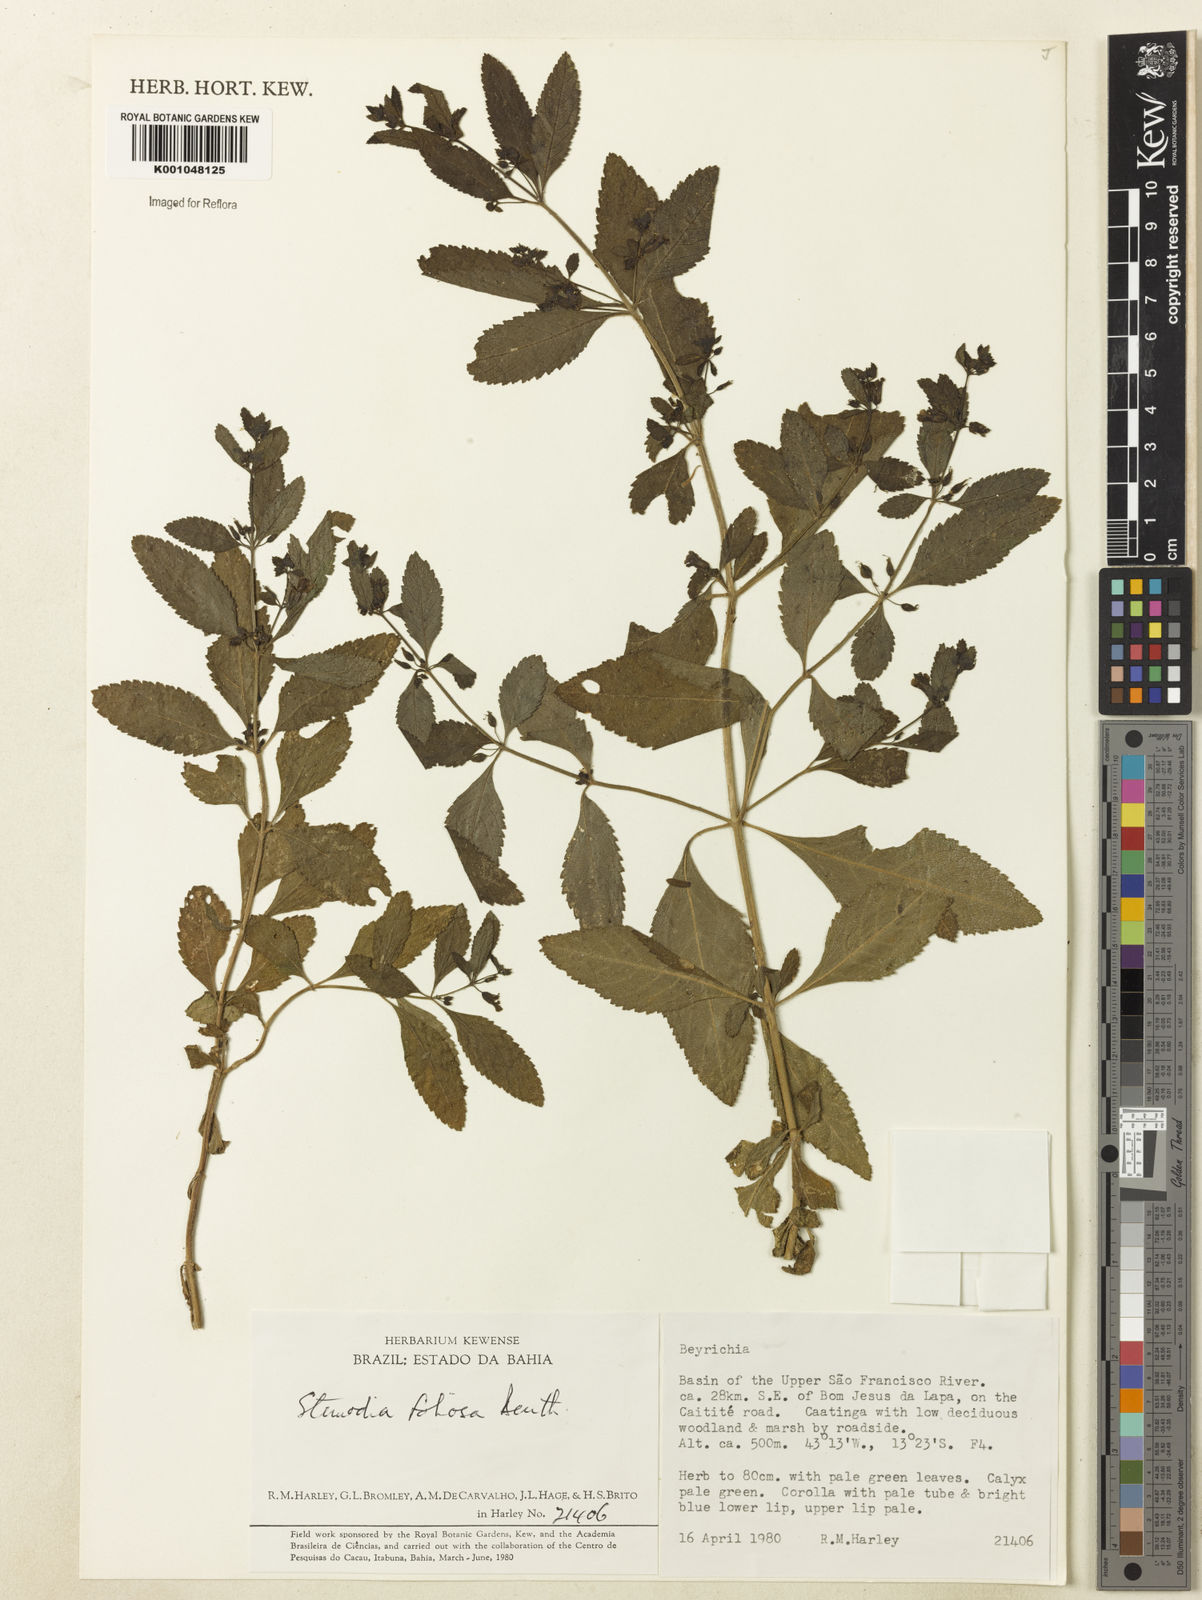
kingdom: Plantae
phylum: Tracheophyta
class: Magnoliopsida
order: Lamiales
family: Plantaginaceae
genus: Stemodia
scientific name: Stemodia foliosa
